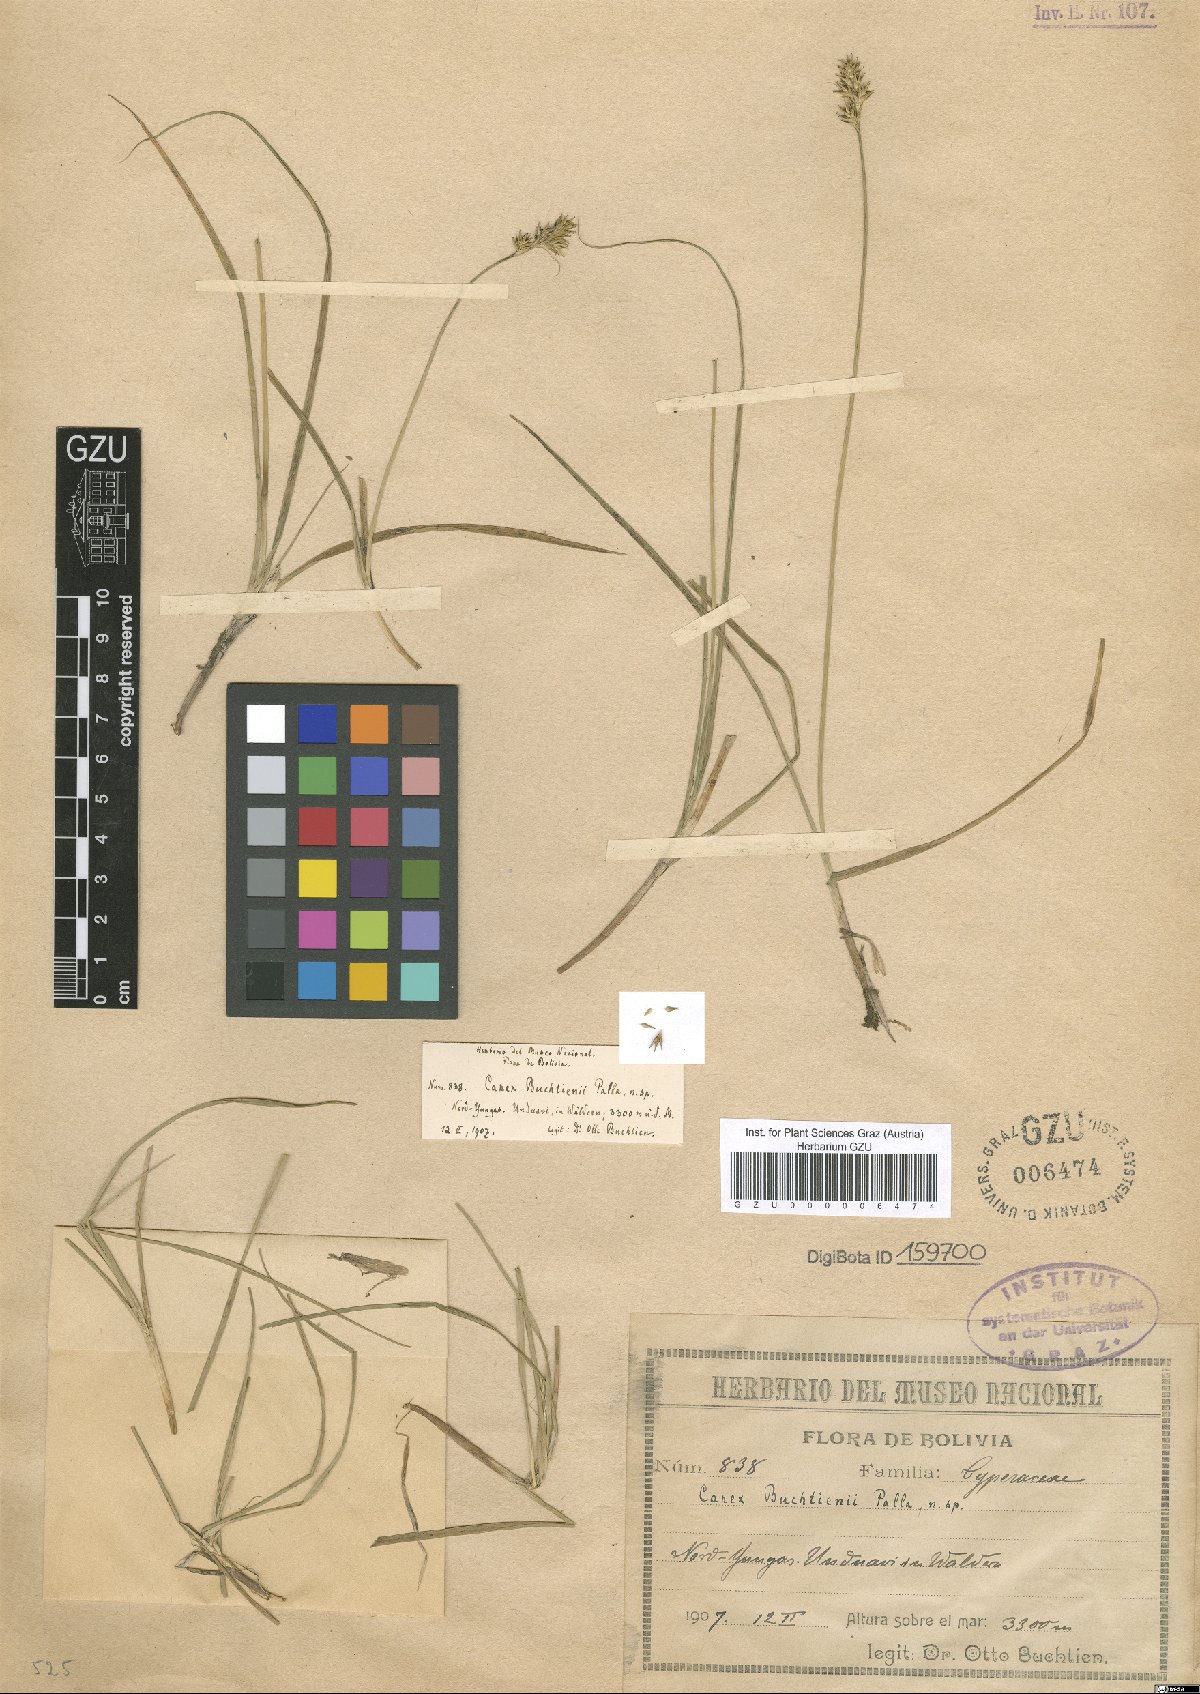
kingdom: Plantae
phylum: Tracheophyta
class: Liliopsida
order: Poales
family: Cyperaceae
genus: Carex
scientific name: Carex buchtienii
